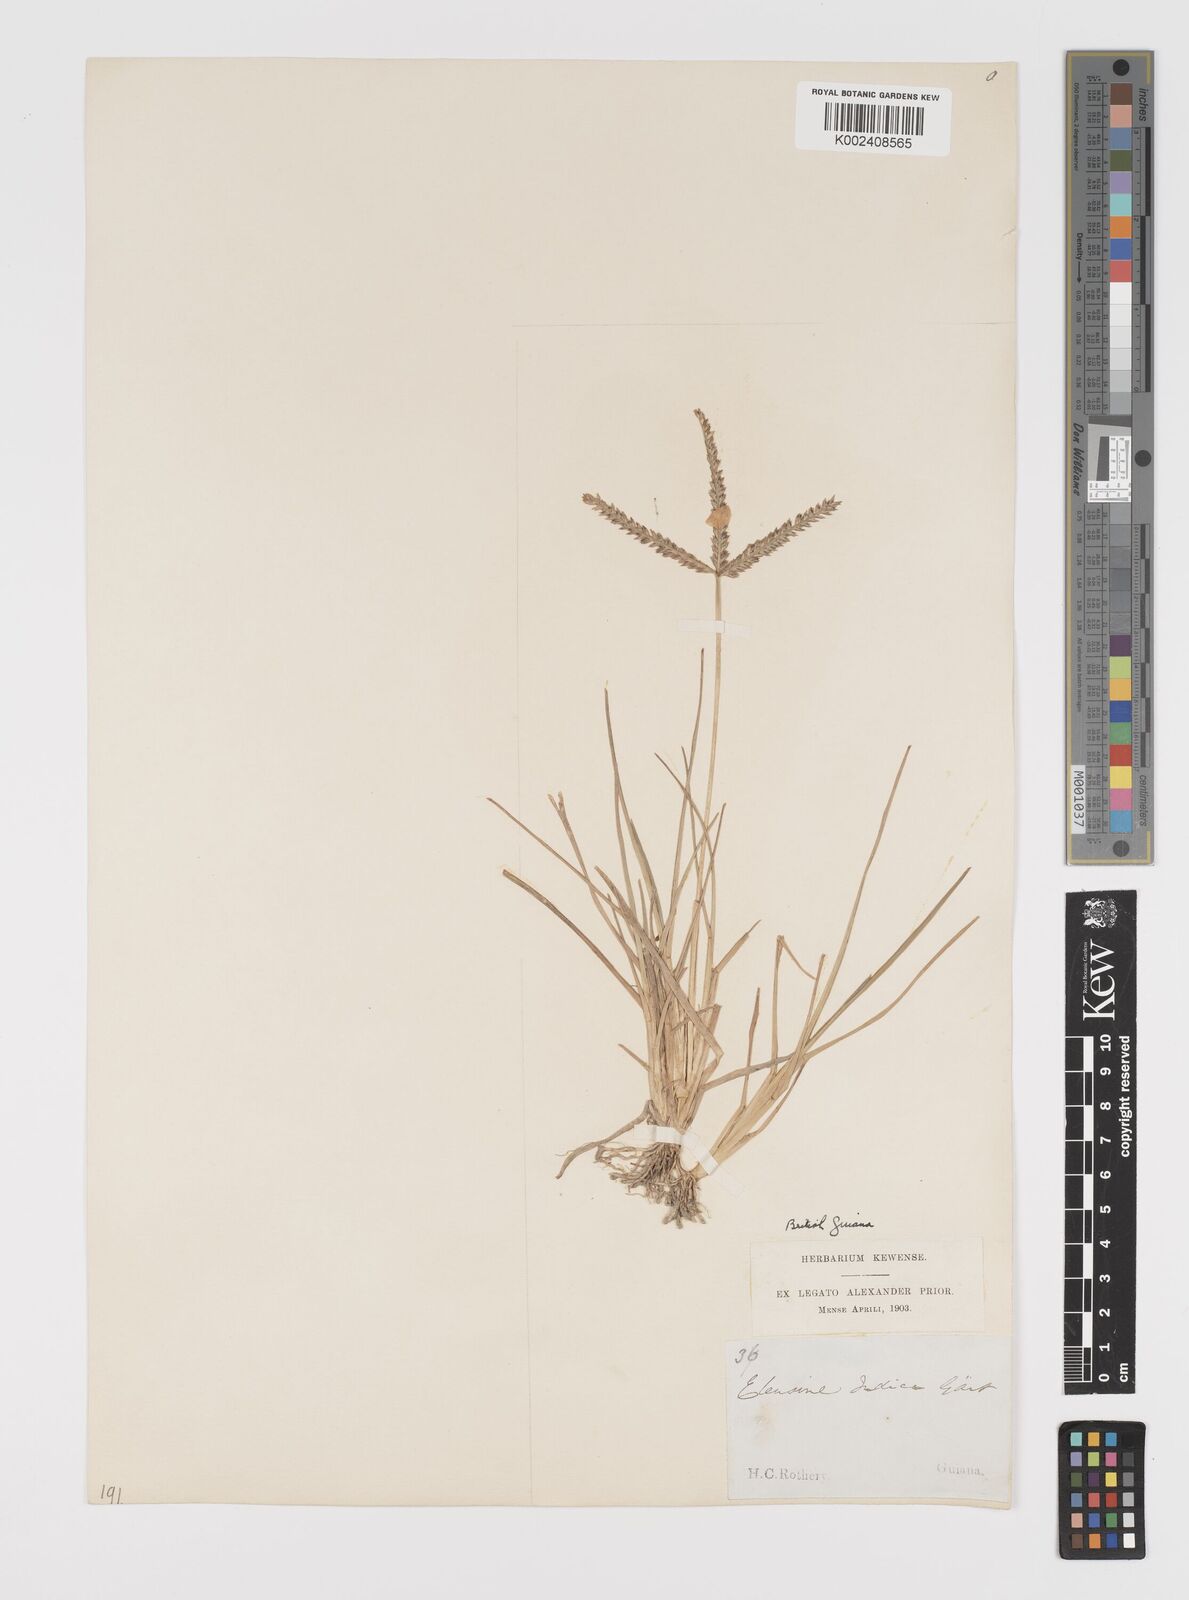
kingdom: Plantae
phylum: Tracheophyta
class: Liliopsida
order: Poales
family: Poaceae
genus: Eleusine
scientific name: Eleusine indica
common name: Yard-grass
